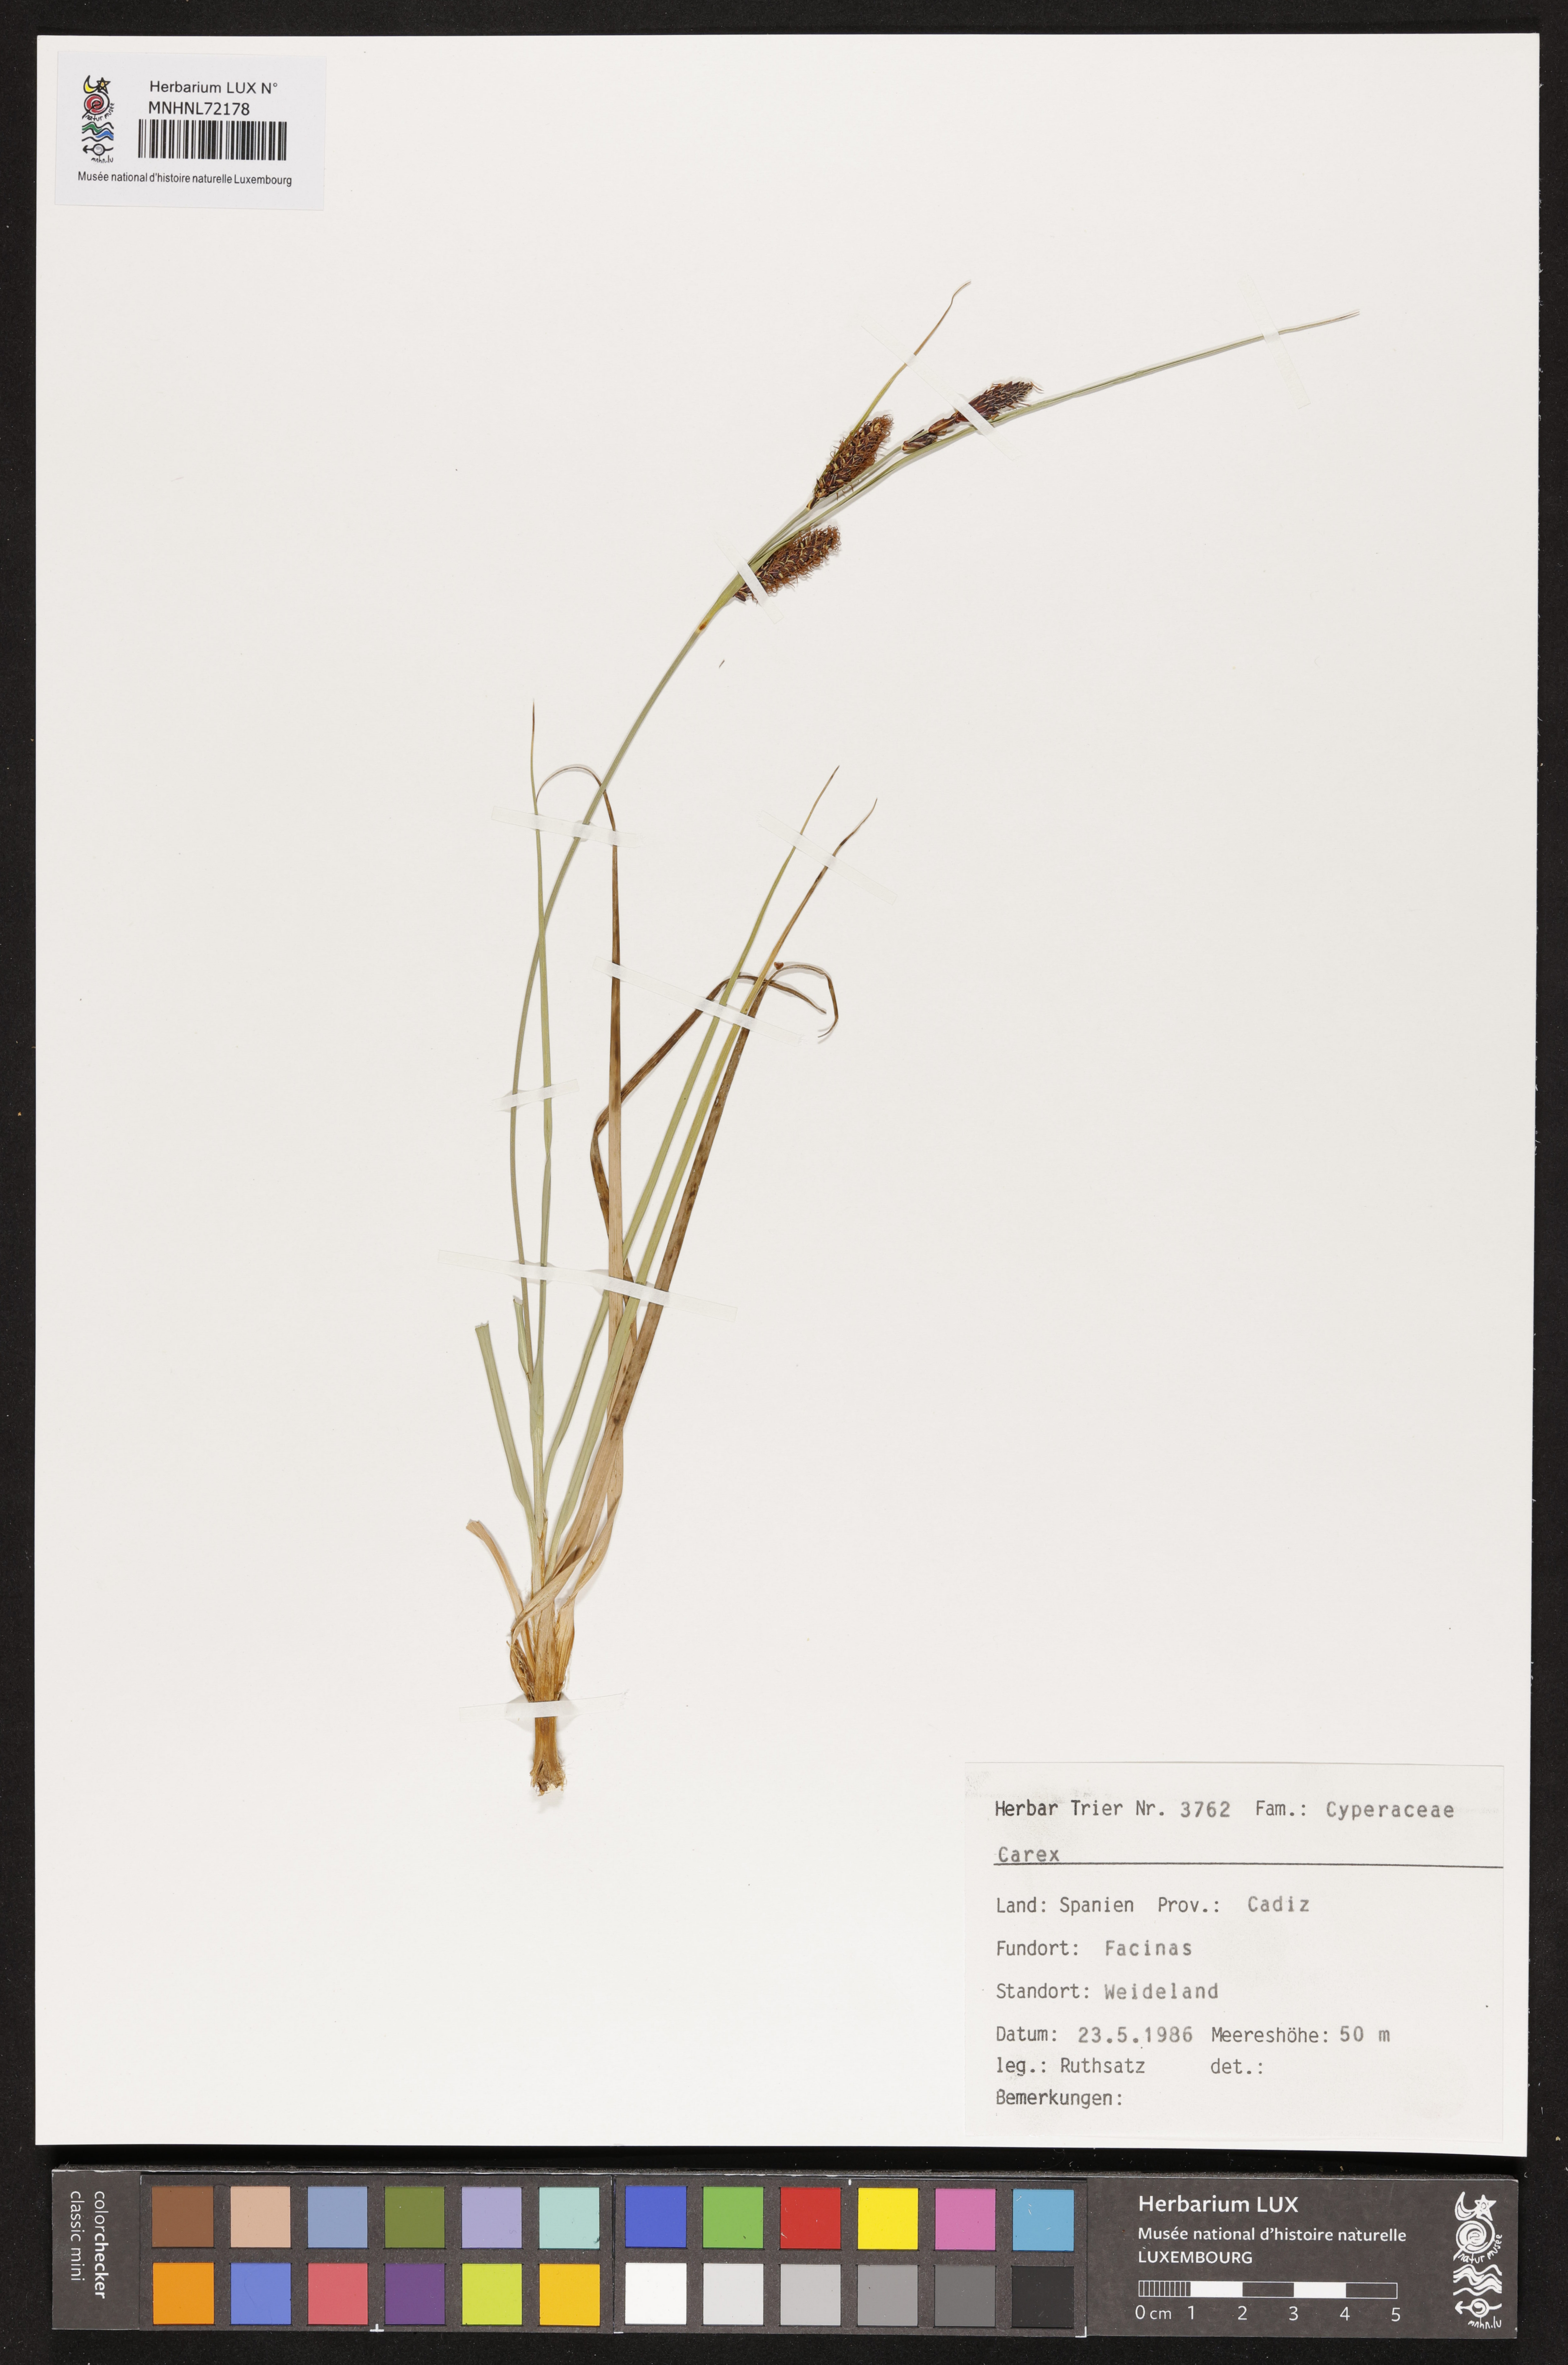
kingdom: Plantae
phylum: Tracheophyta
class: Liliopsida
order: Poales
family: Cyperaceae
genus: Carex
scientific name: Carex
